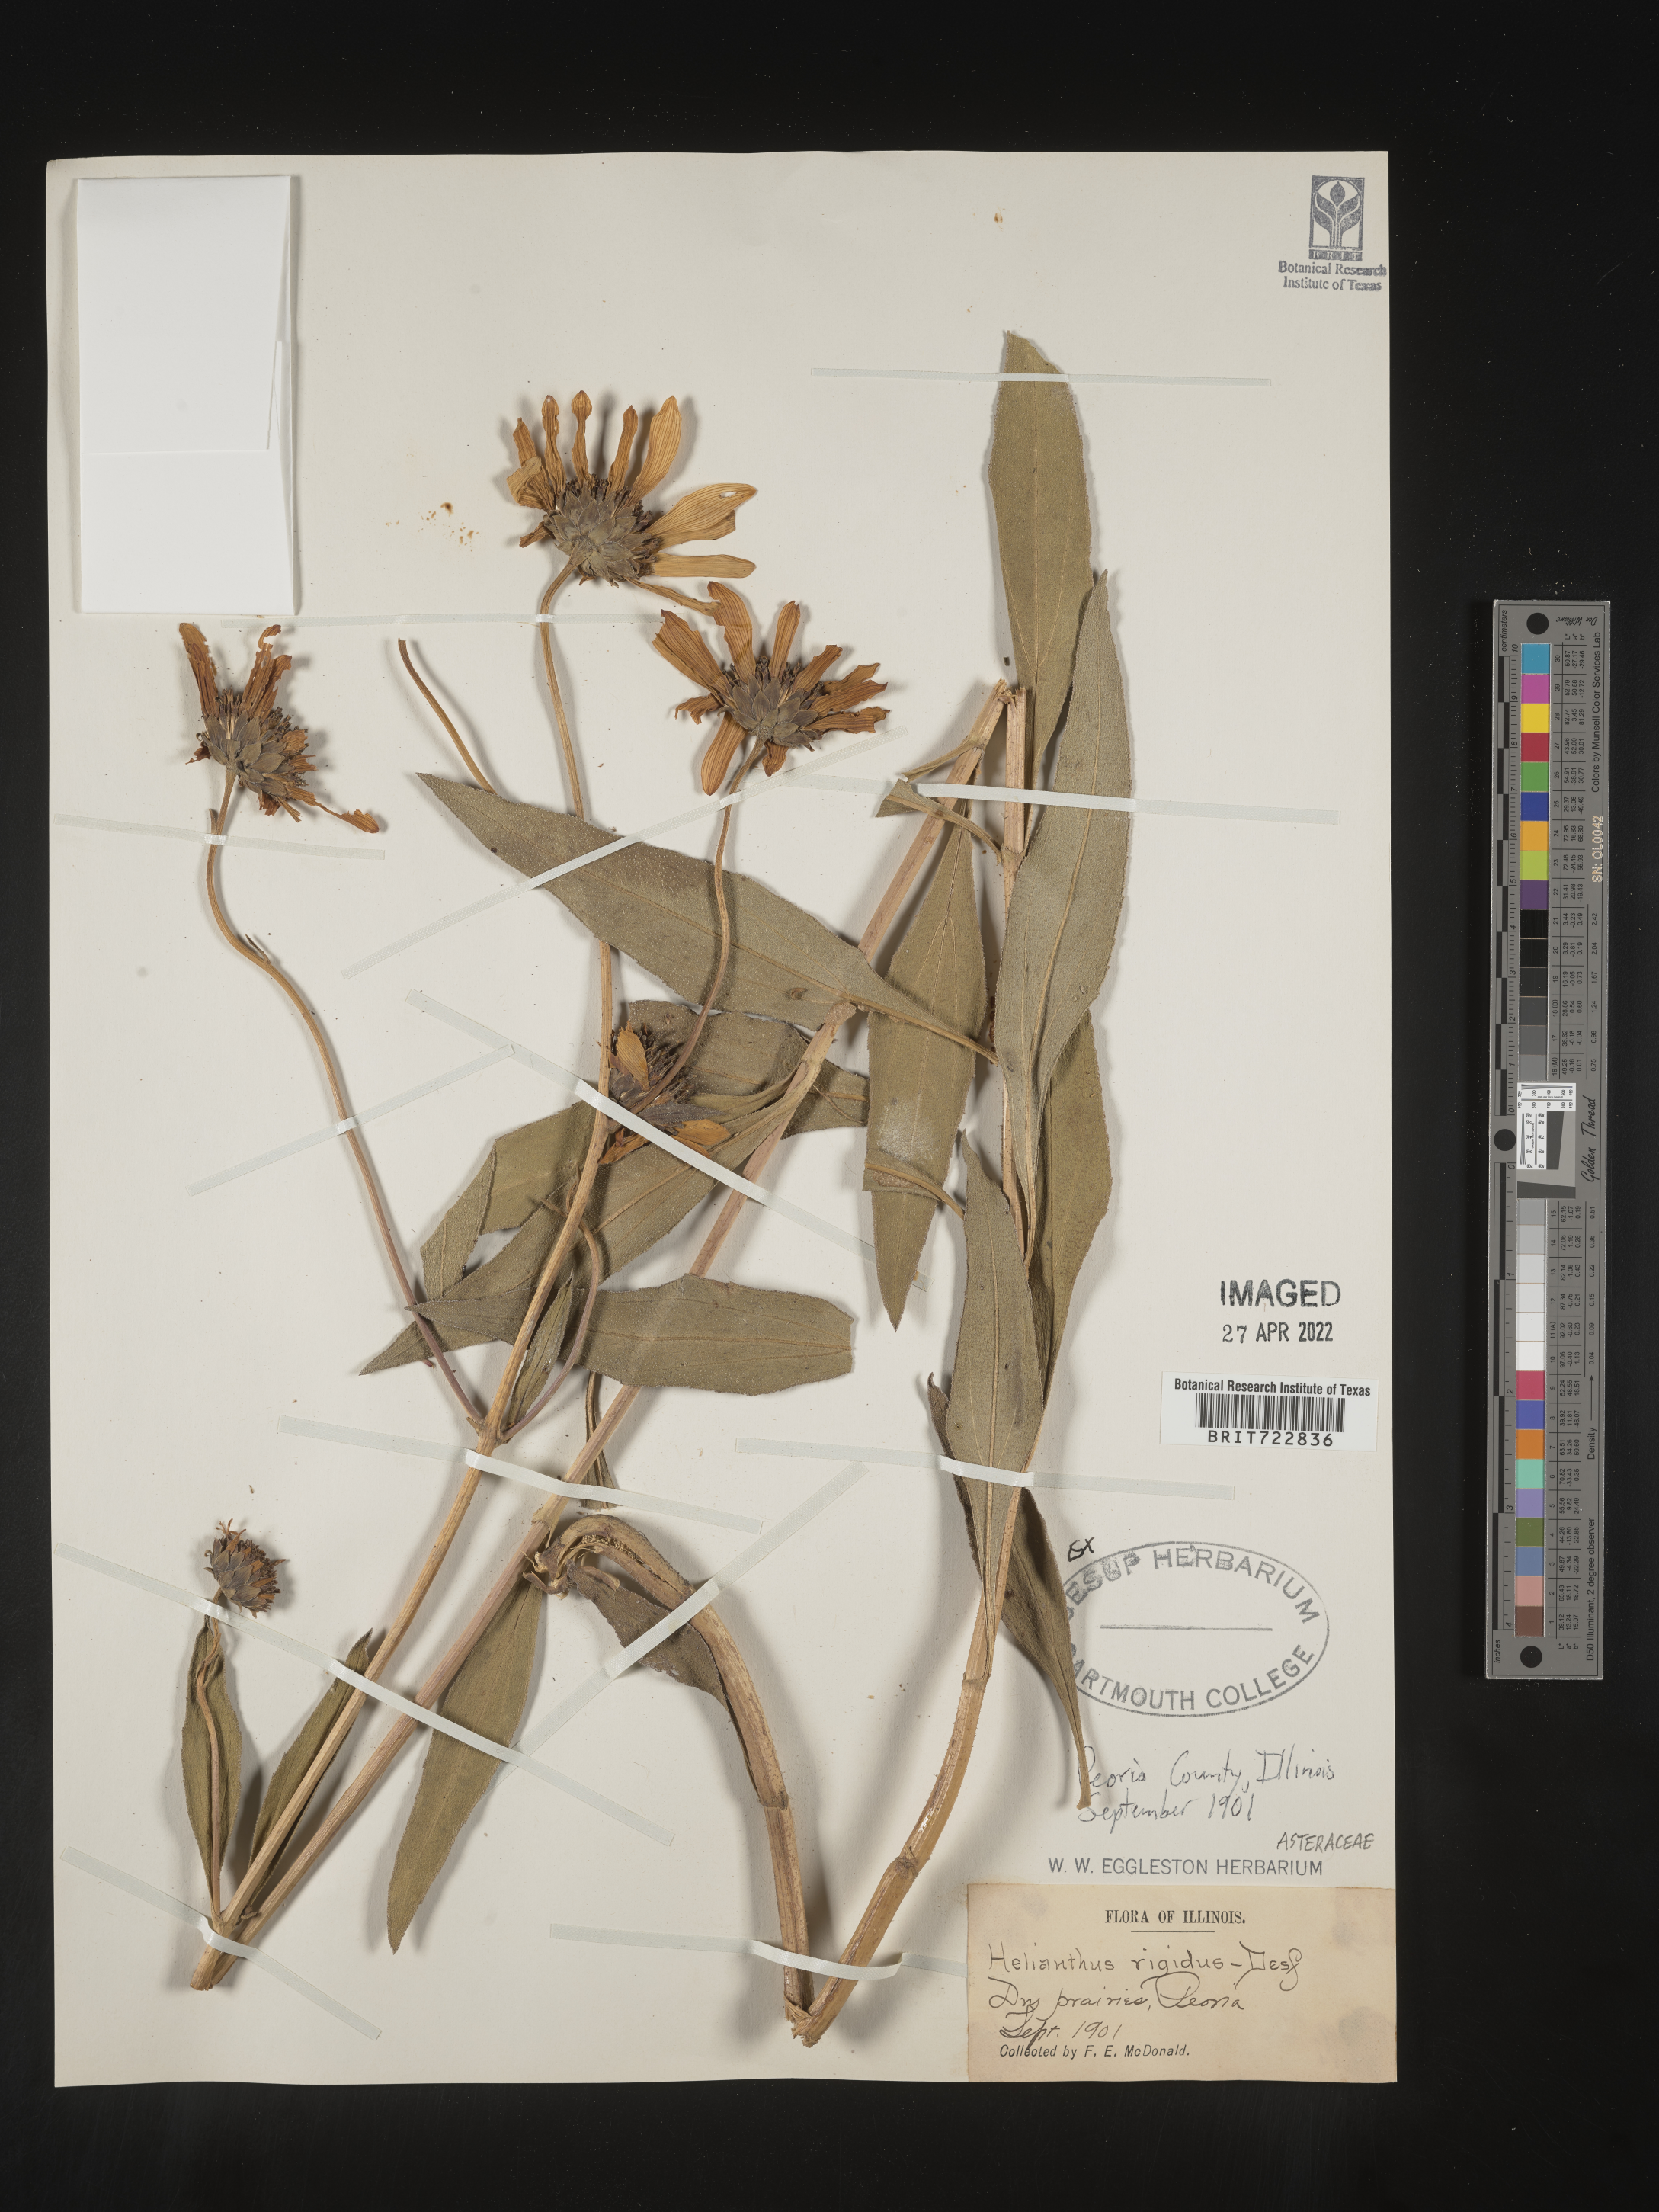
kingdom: Plantae
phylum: Tracheophyta
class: Magnoliopsida
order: Asterales
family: Asteraceae
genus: Helianthus
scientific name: Helianthus pauciflorus
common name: Stiff sunflower
